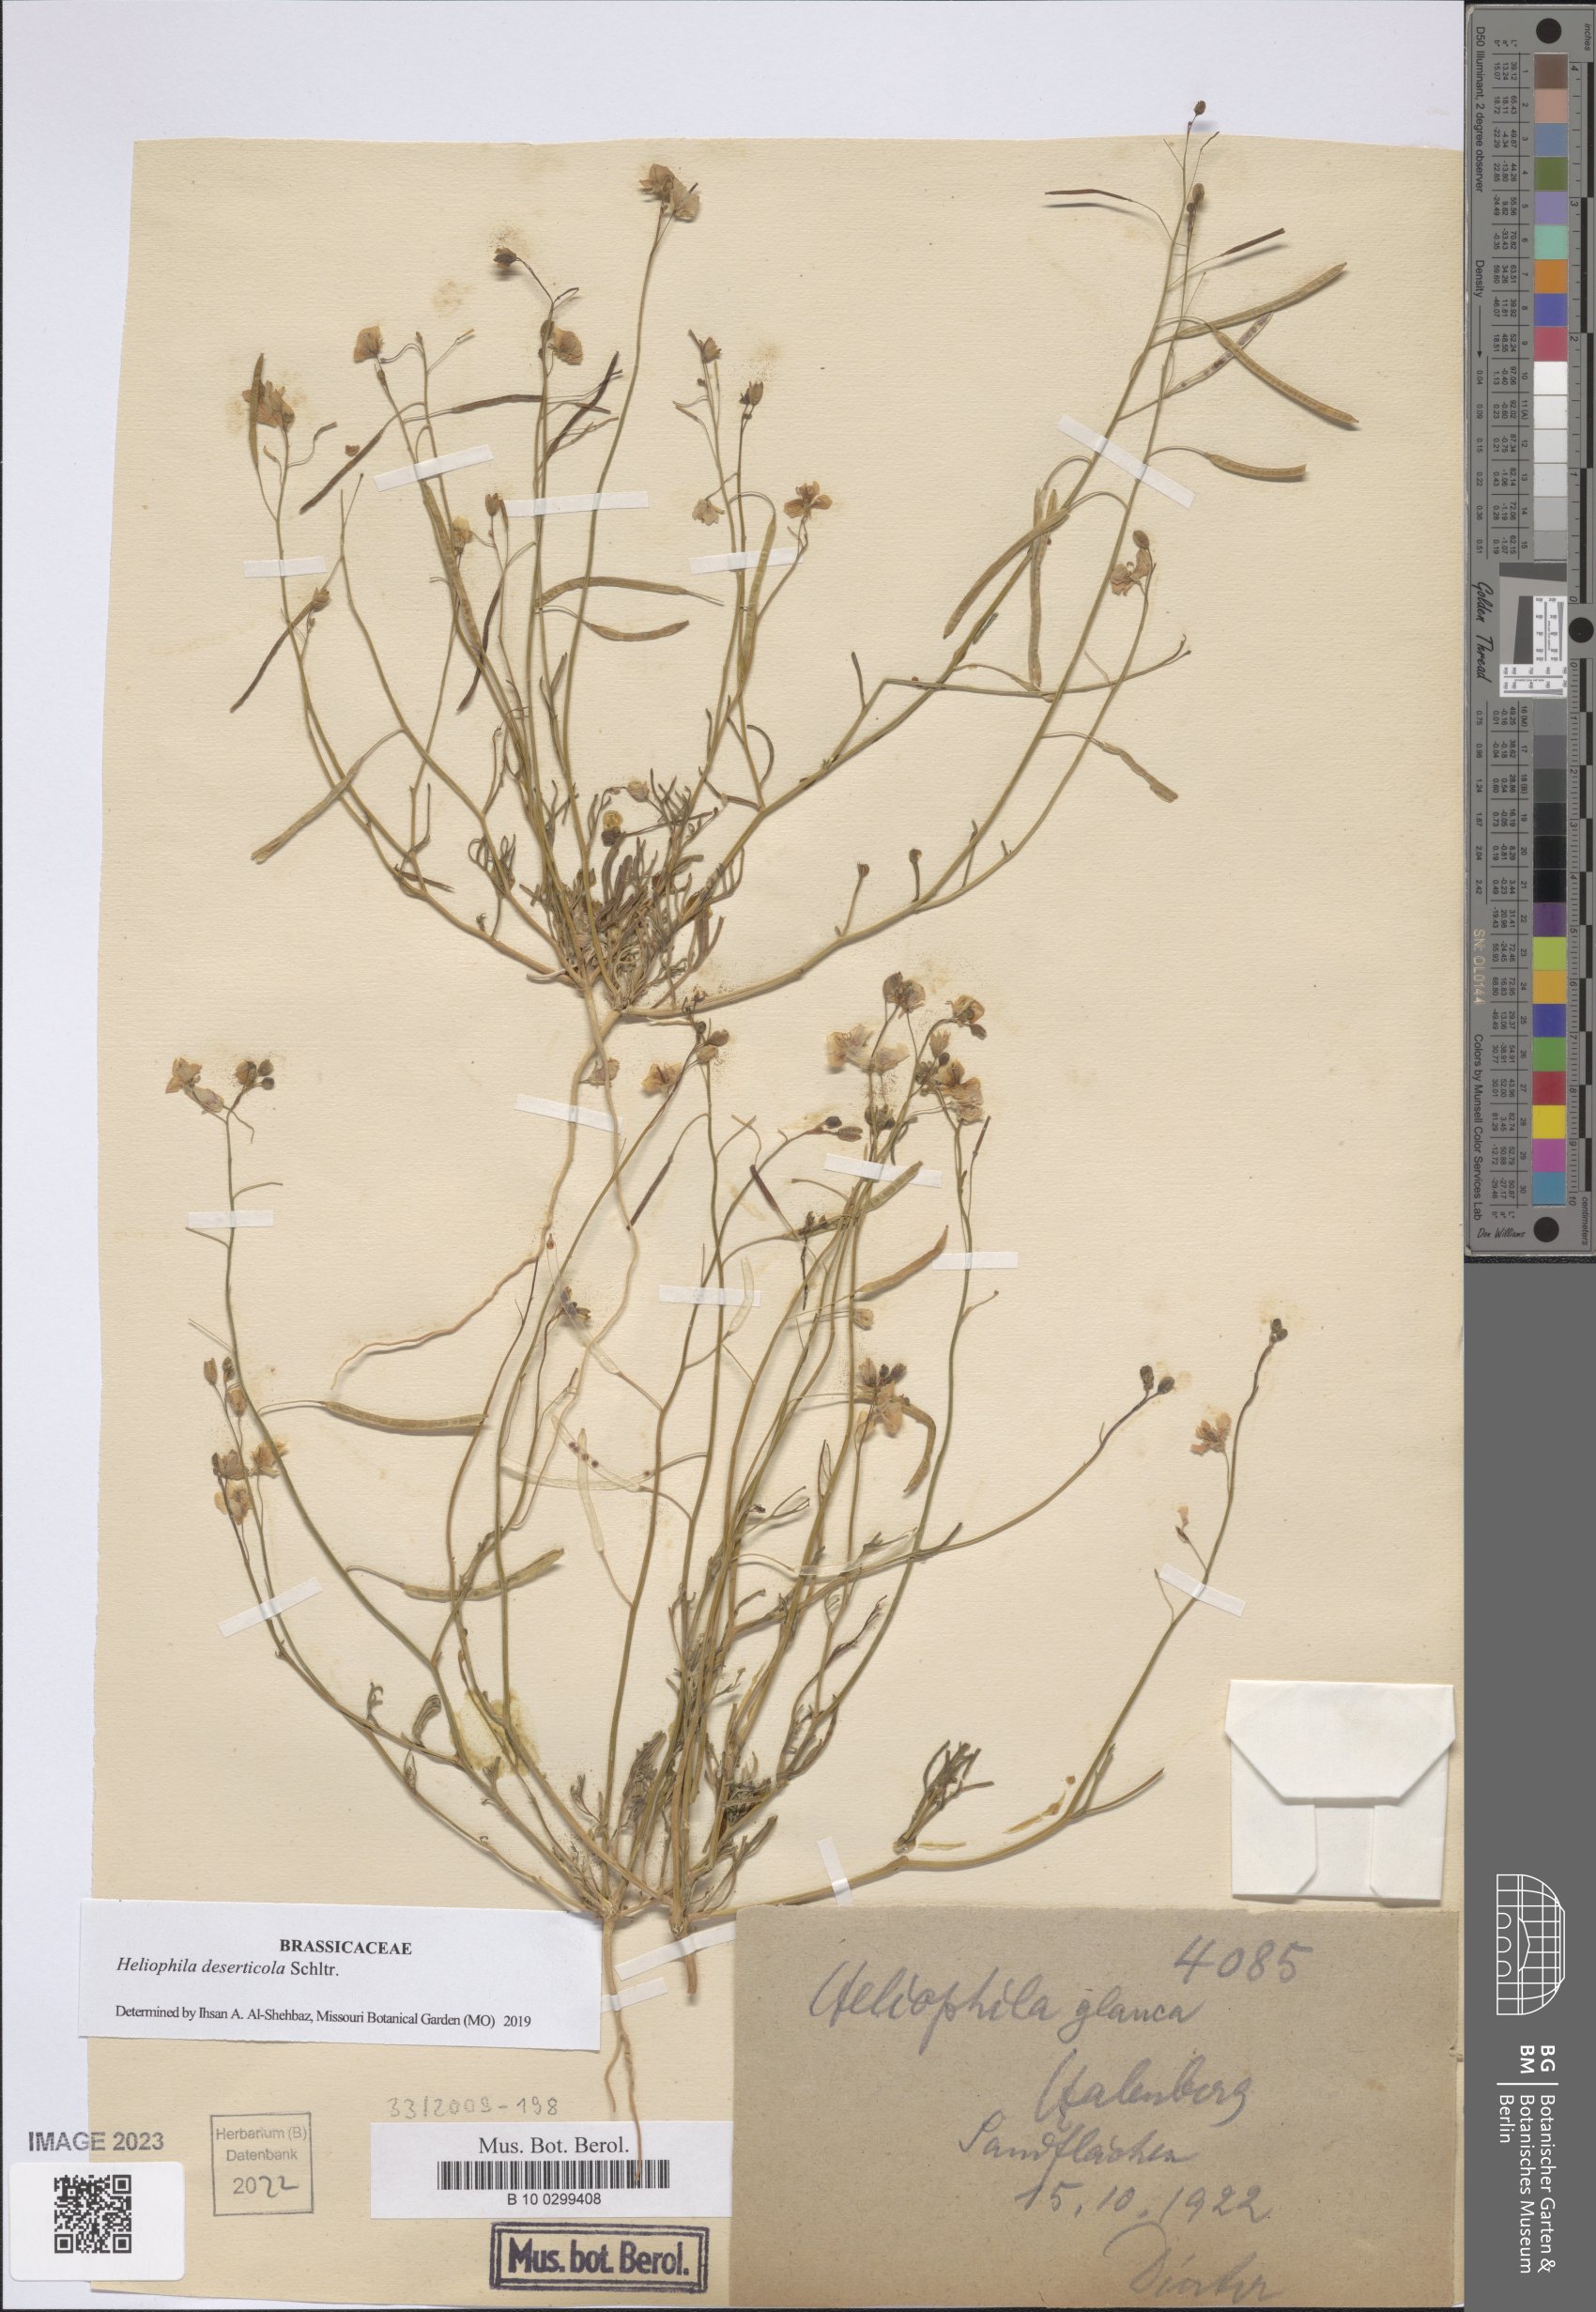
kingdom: Plantae
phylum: Tracheophyta
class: Magnoliopsida
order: Brassicales
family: Brassicaceae
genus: Heliophila
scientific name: Heliophila deserticola
